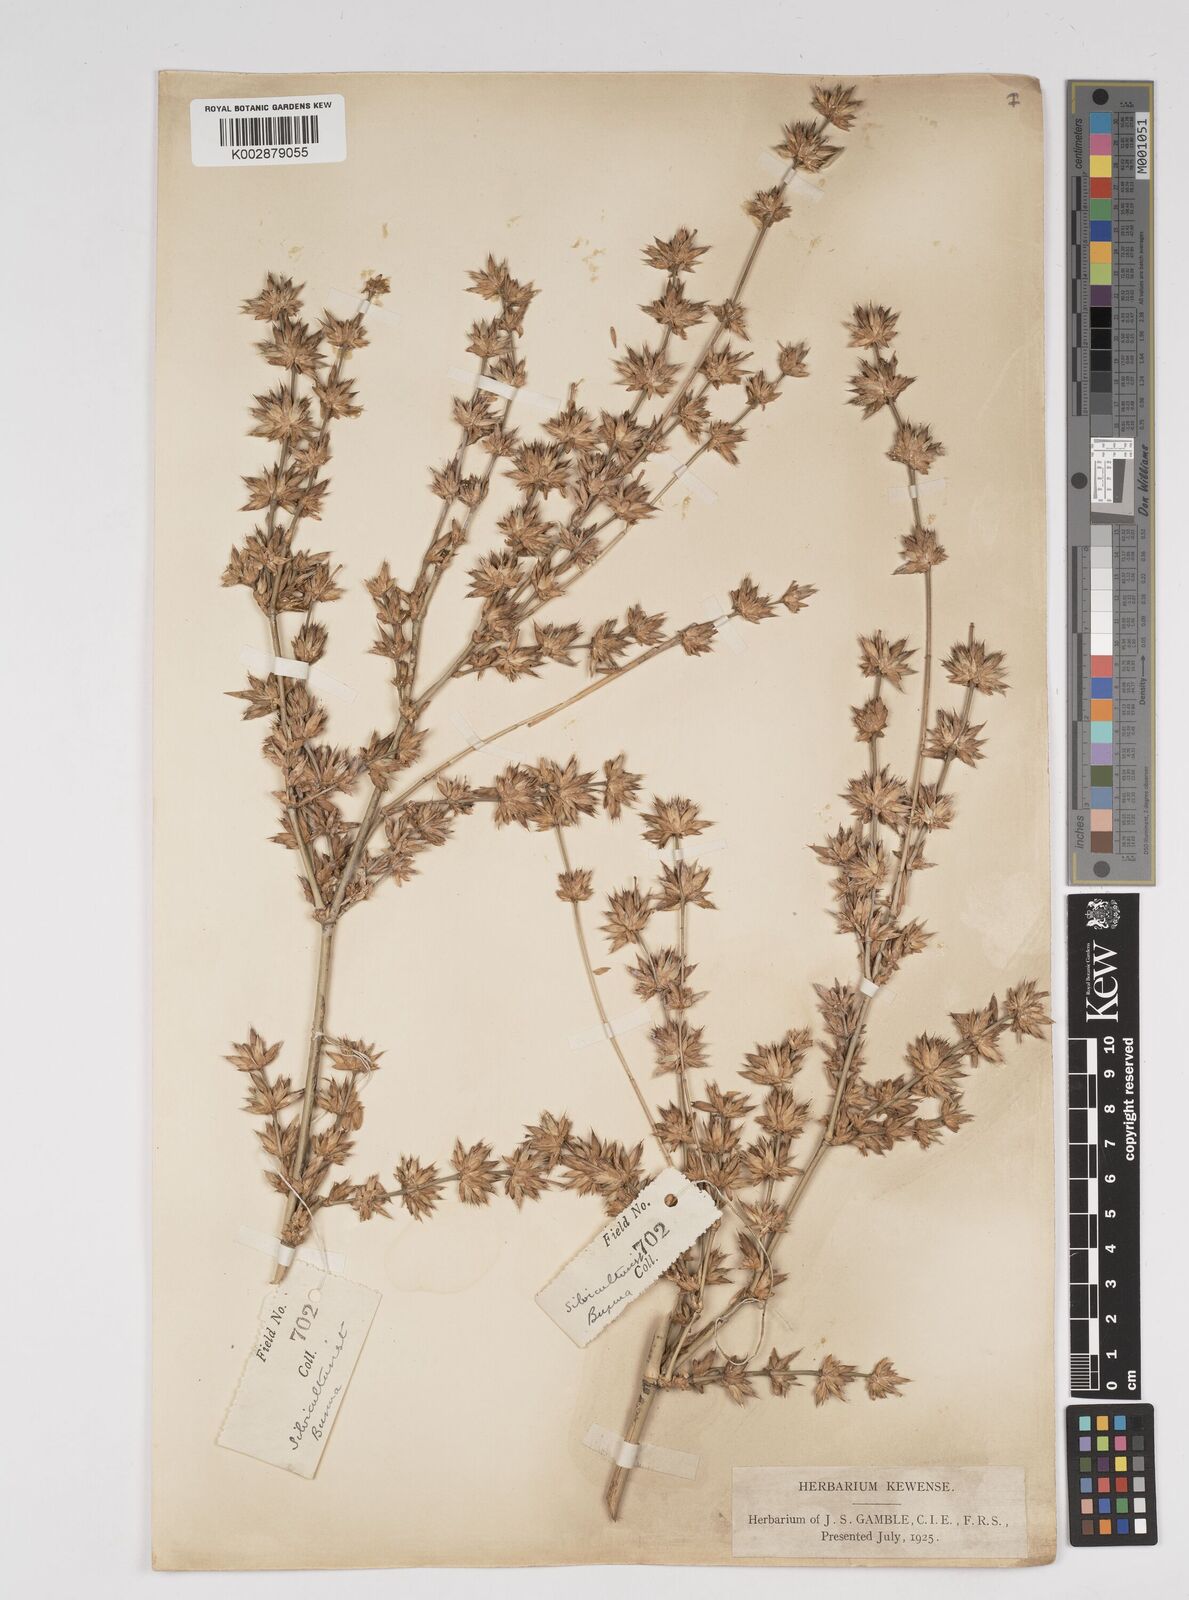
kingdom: Plantae
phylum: Tracheophyta
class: Liliopsida
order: Poales
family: Poaceae
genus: Dendrocalamus
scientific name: Dendrocalamus membranaceus
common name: White bamboo
